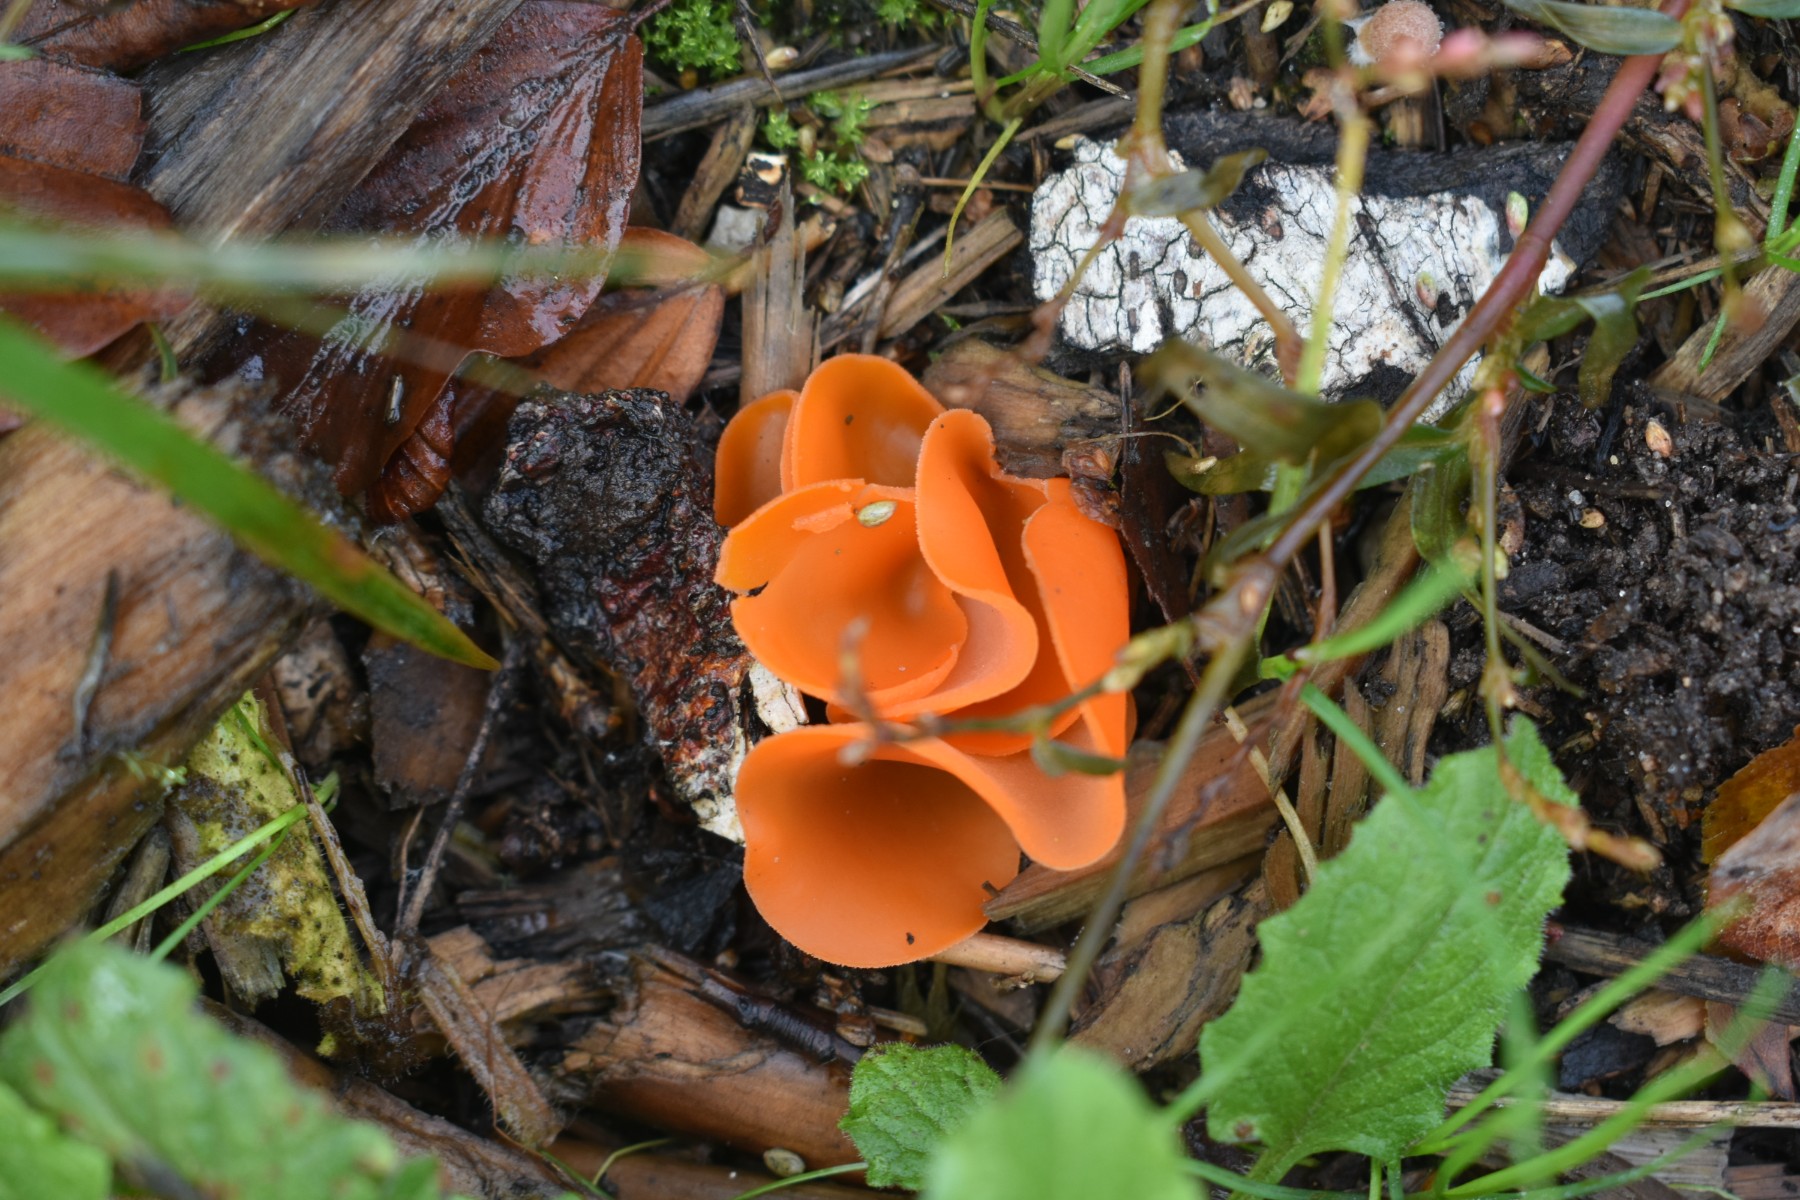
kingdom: Fungi
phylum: Ascomycota
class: Pezizomycetes
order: Pezizales
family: Pyronemataceae
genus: Aleuria
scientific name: Aleuria aurantia
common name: almindelig orangebæger
